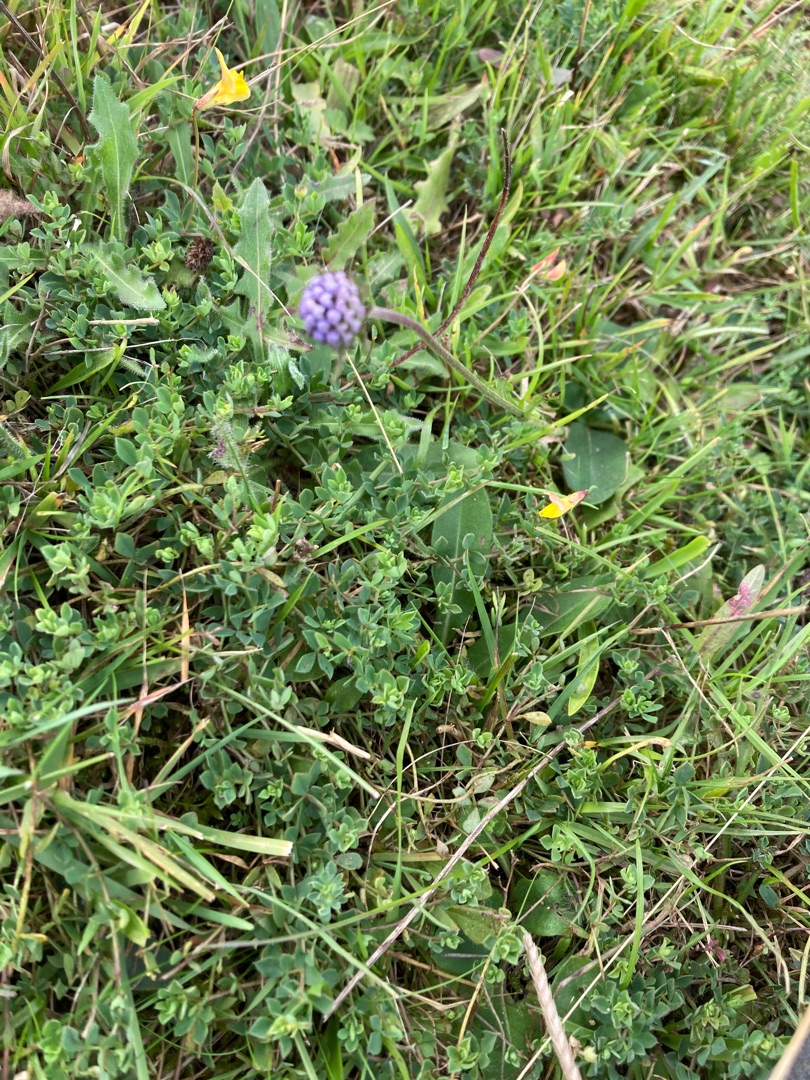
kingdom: Plantae
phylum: Tracheophyta
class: Magnoliopsida
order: Dipsacales
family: Caprifoliaceae
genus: Succisa
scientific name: Succisa pratensis
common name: Djævelsbid
